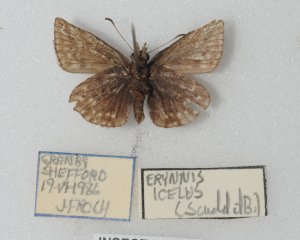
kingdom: Animalia
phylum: Arthropoda
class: Insecta
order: Lepidoptera
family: Hesperiidae
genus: Erynnis
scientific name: Erynnis icelus
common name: Dreamy Duskywing
